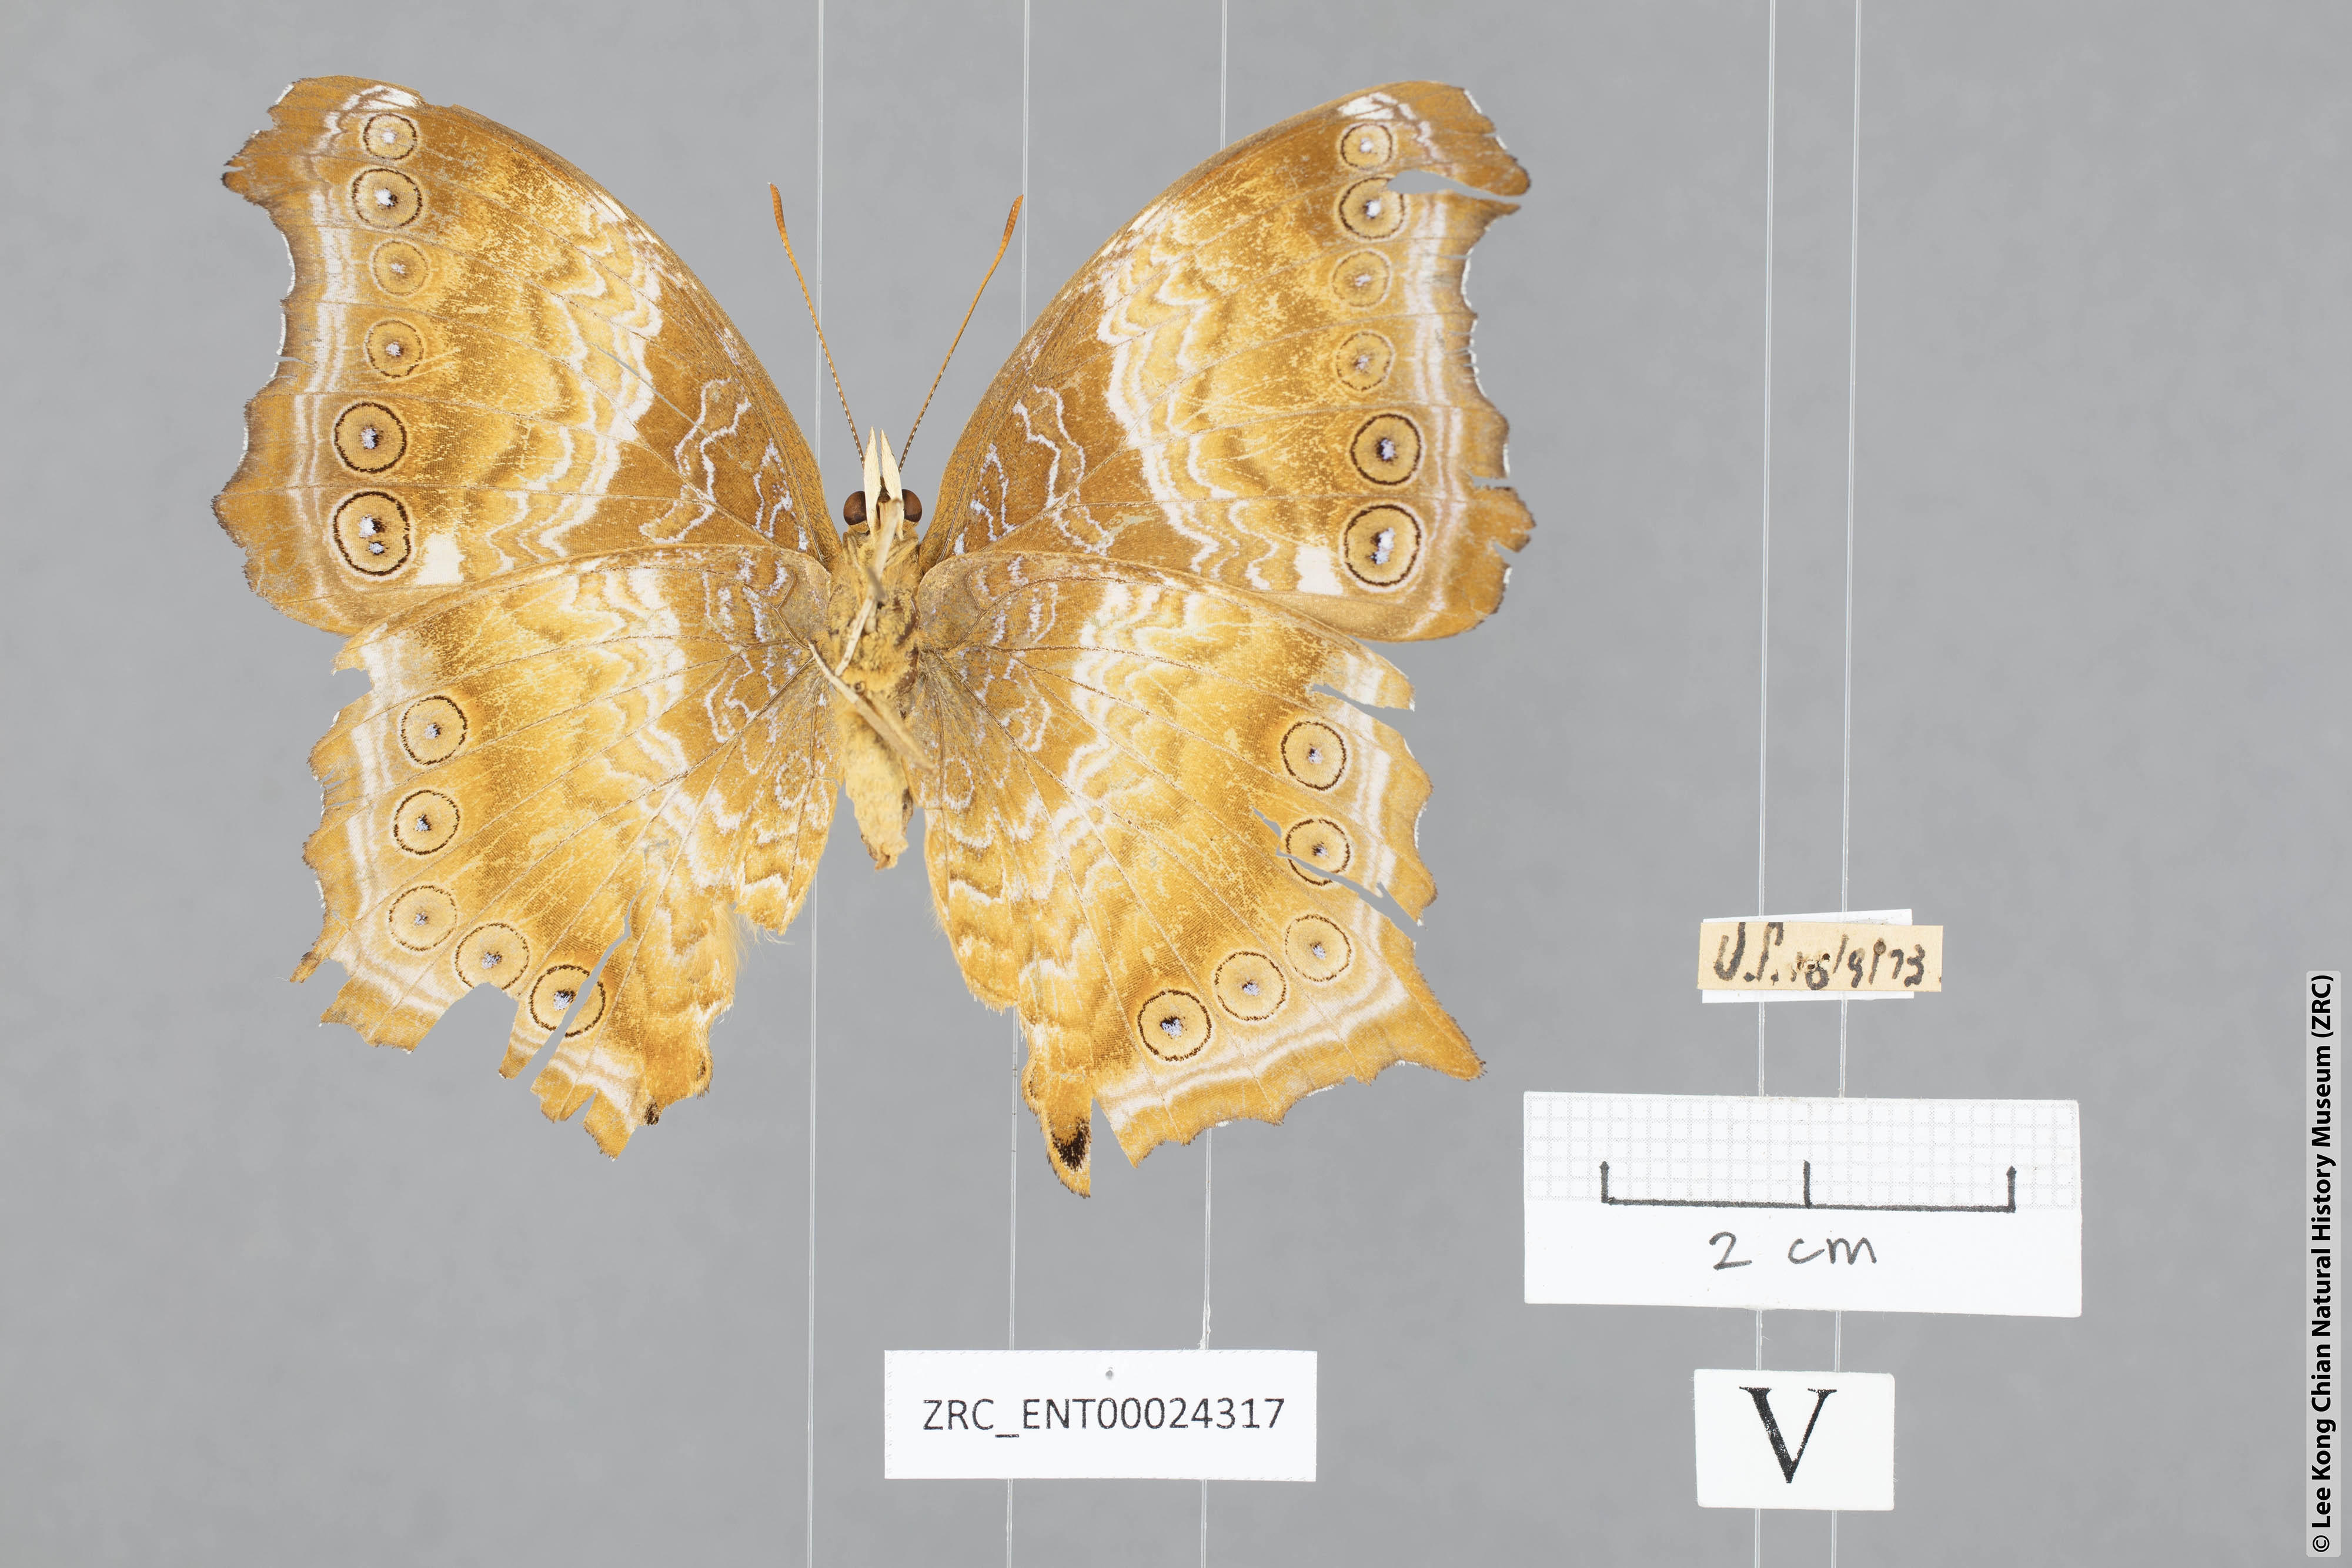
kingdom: Animalia
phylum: Arthropoda
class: Insecta
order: Lepidoptera
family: Nymphalidae
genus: Rhinopalpa
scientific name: Rhinopalpa polynice
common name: Wizard
